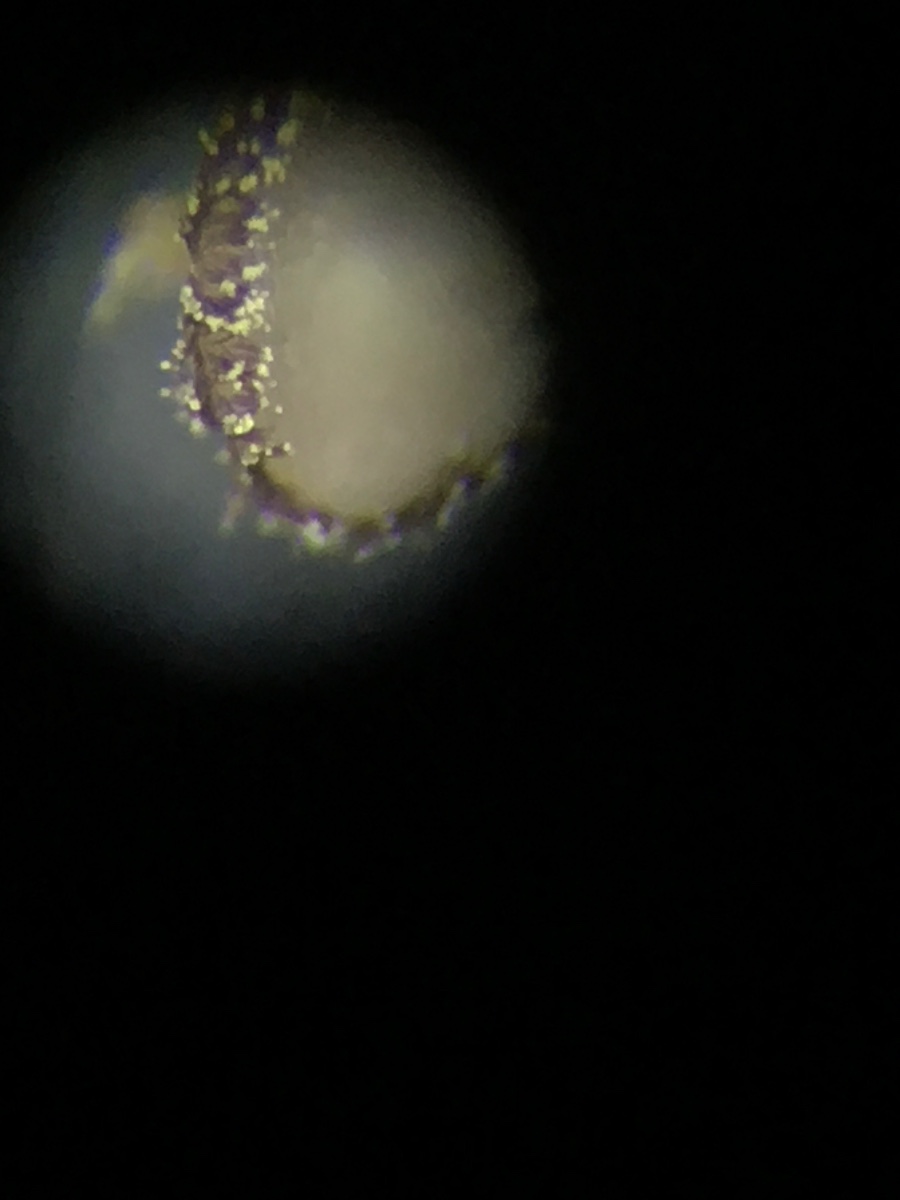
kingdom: Fungi
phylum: Ascomycota
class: Leotiomycetes
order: Helotiales
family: Lachnaceae
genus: Brunnipila
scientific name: Brunnipila brunneola
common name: læderbrun frynseskive
